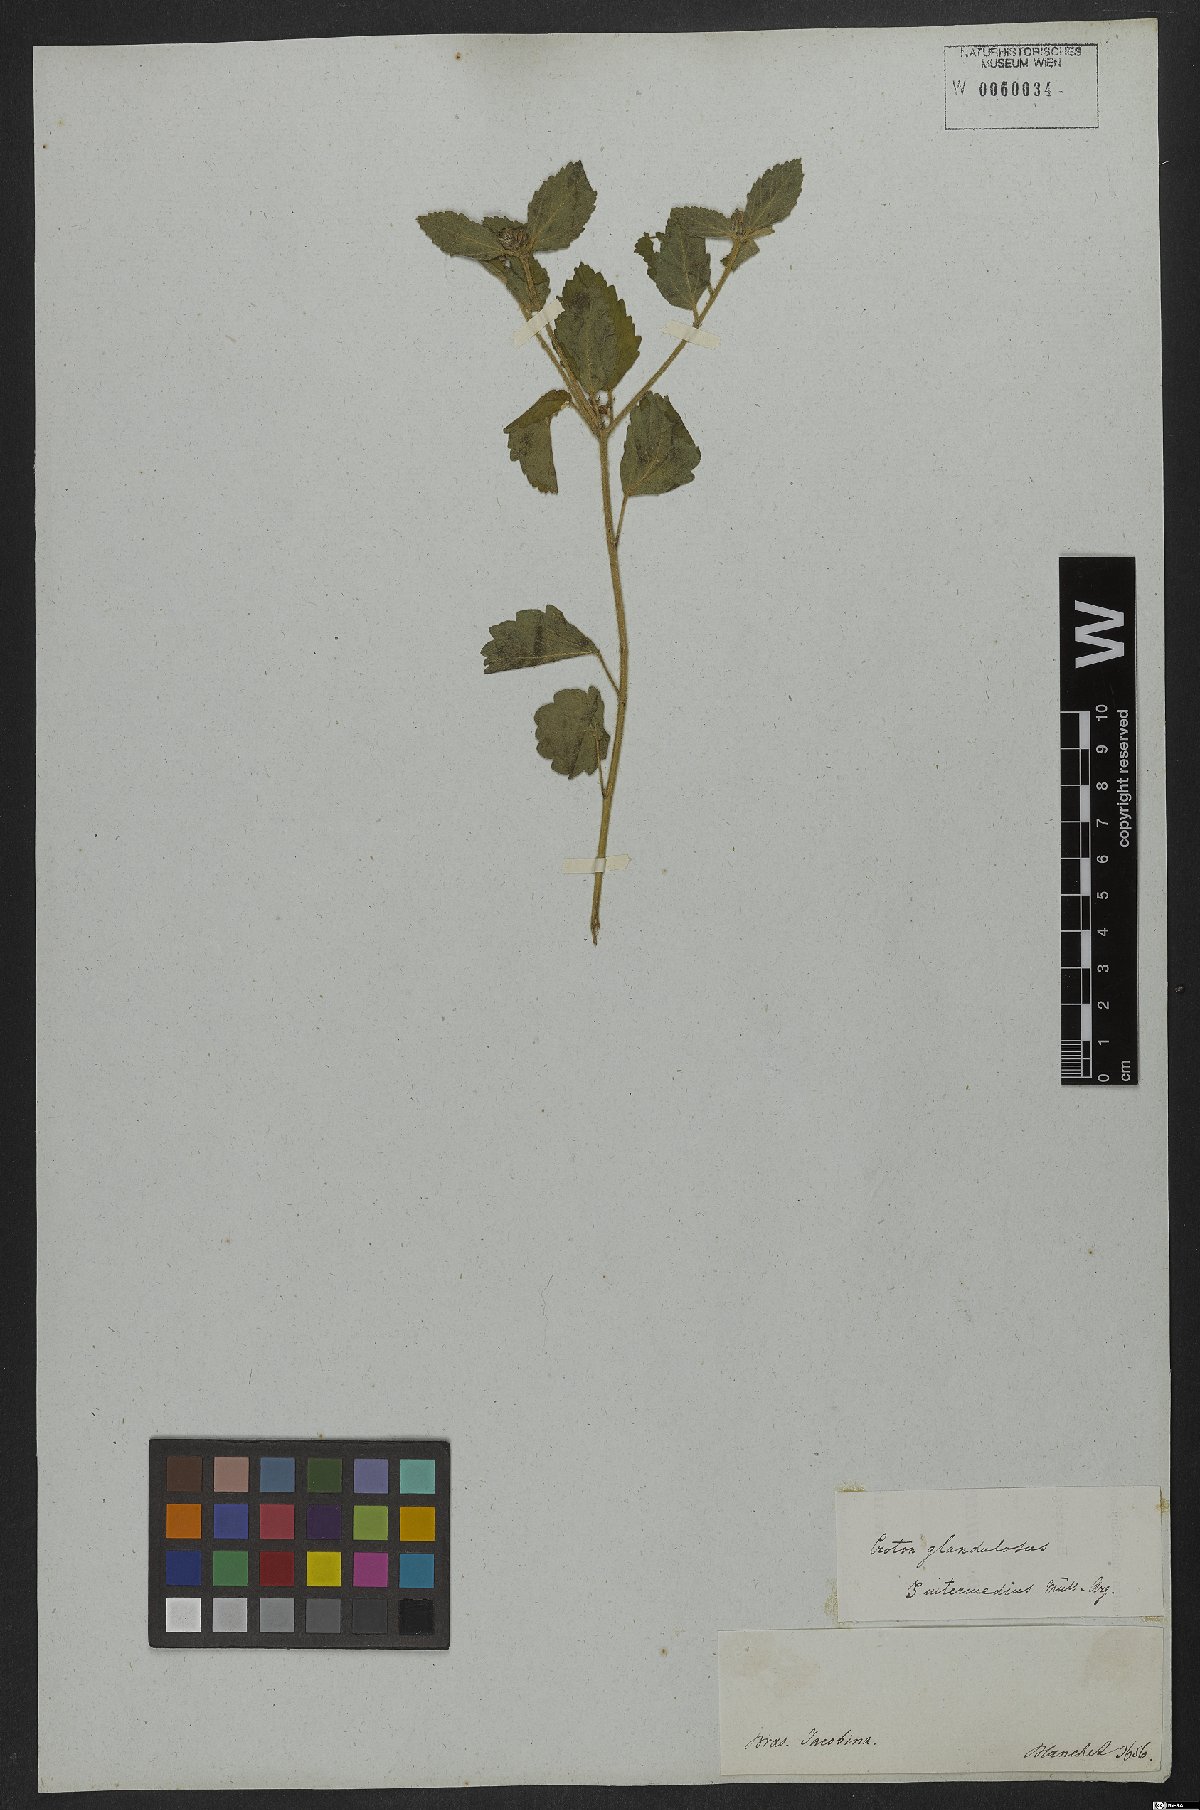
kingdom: Plantae
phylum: Tracheophyta
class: Magnoliopsida
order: Malpighiales
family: Euphorbiaceae
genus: Croton
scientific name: Croton glandulosus
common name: Tropic croton
